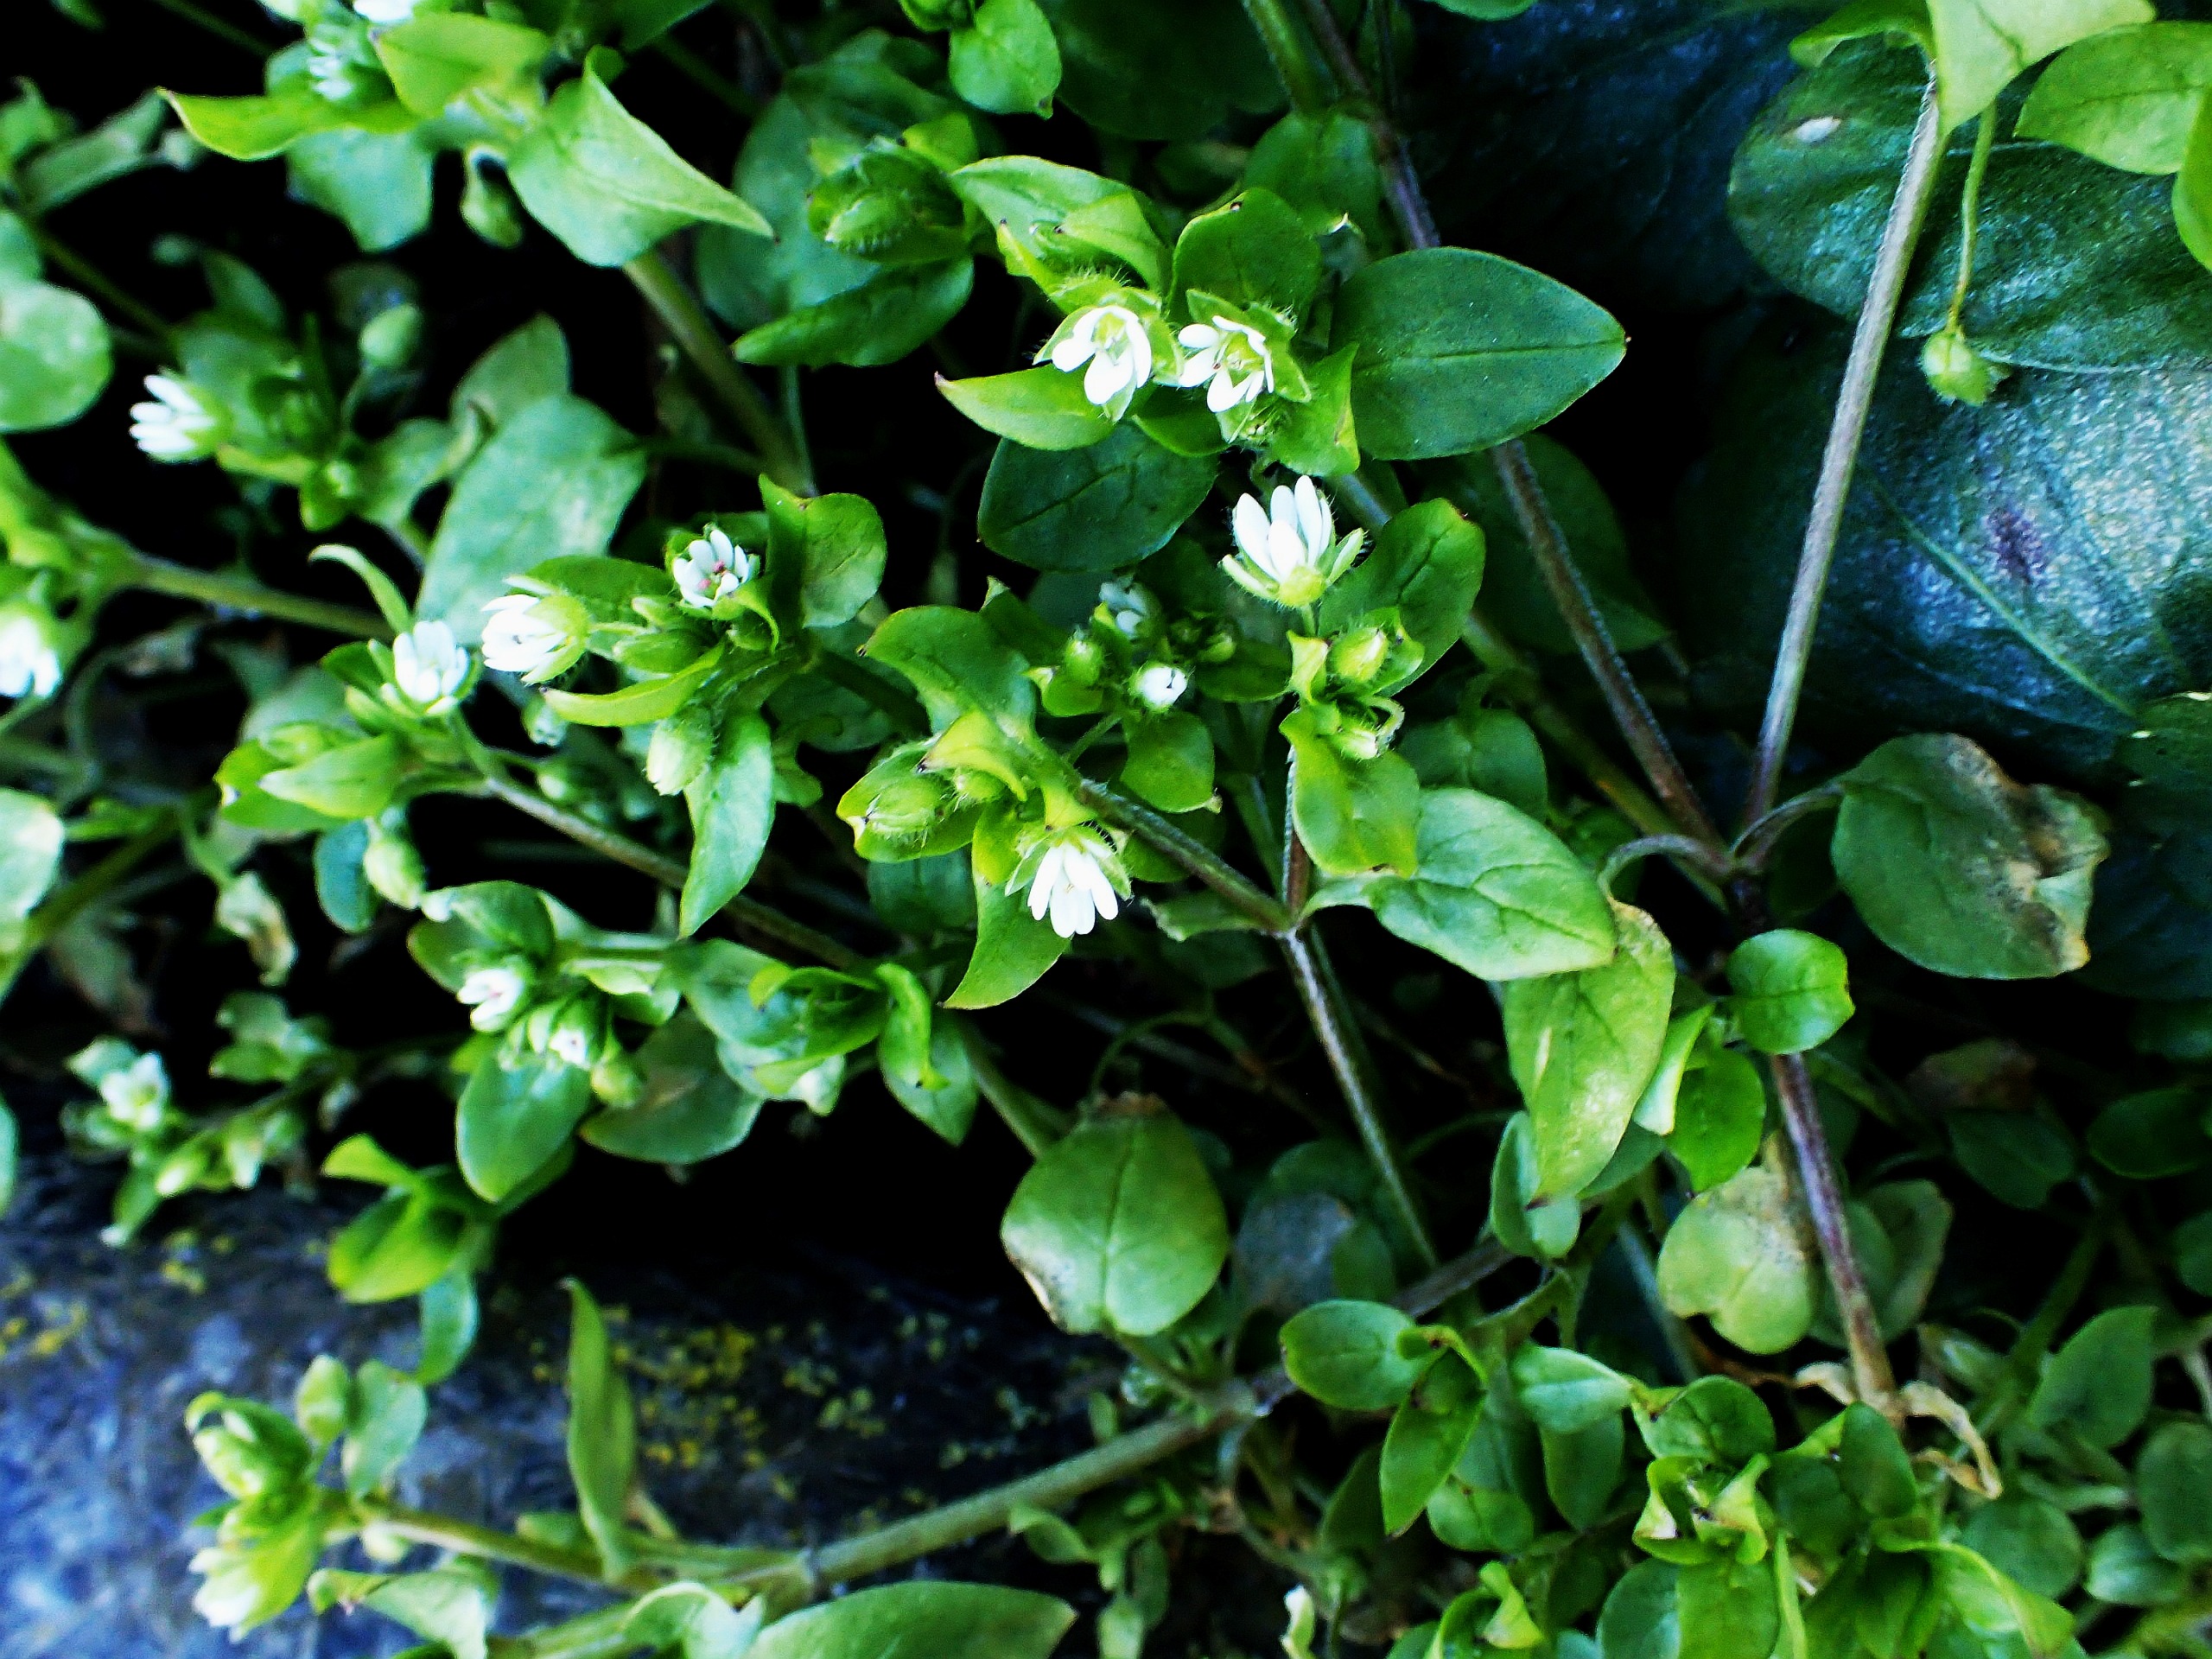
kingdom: Plantae
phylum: Tracheophyta
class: Magnoliopsida
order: Caryophyllales
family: Caryophyllaceae
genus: Stellaria
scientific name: Stellaria media
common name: Almindelig fuglegræs
